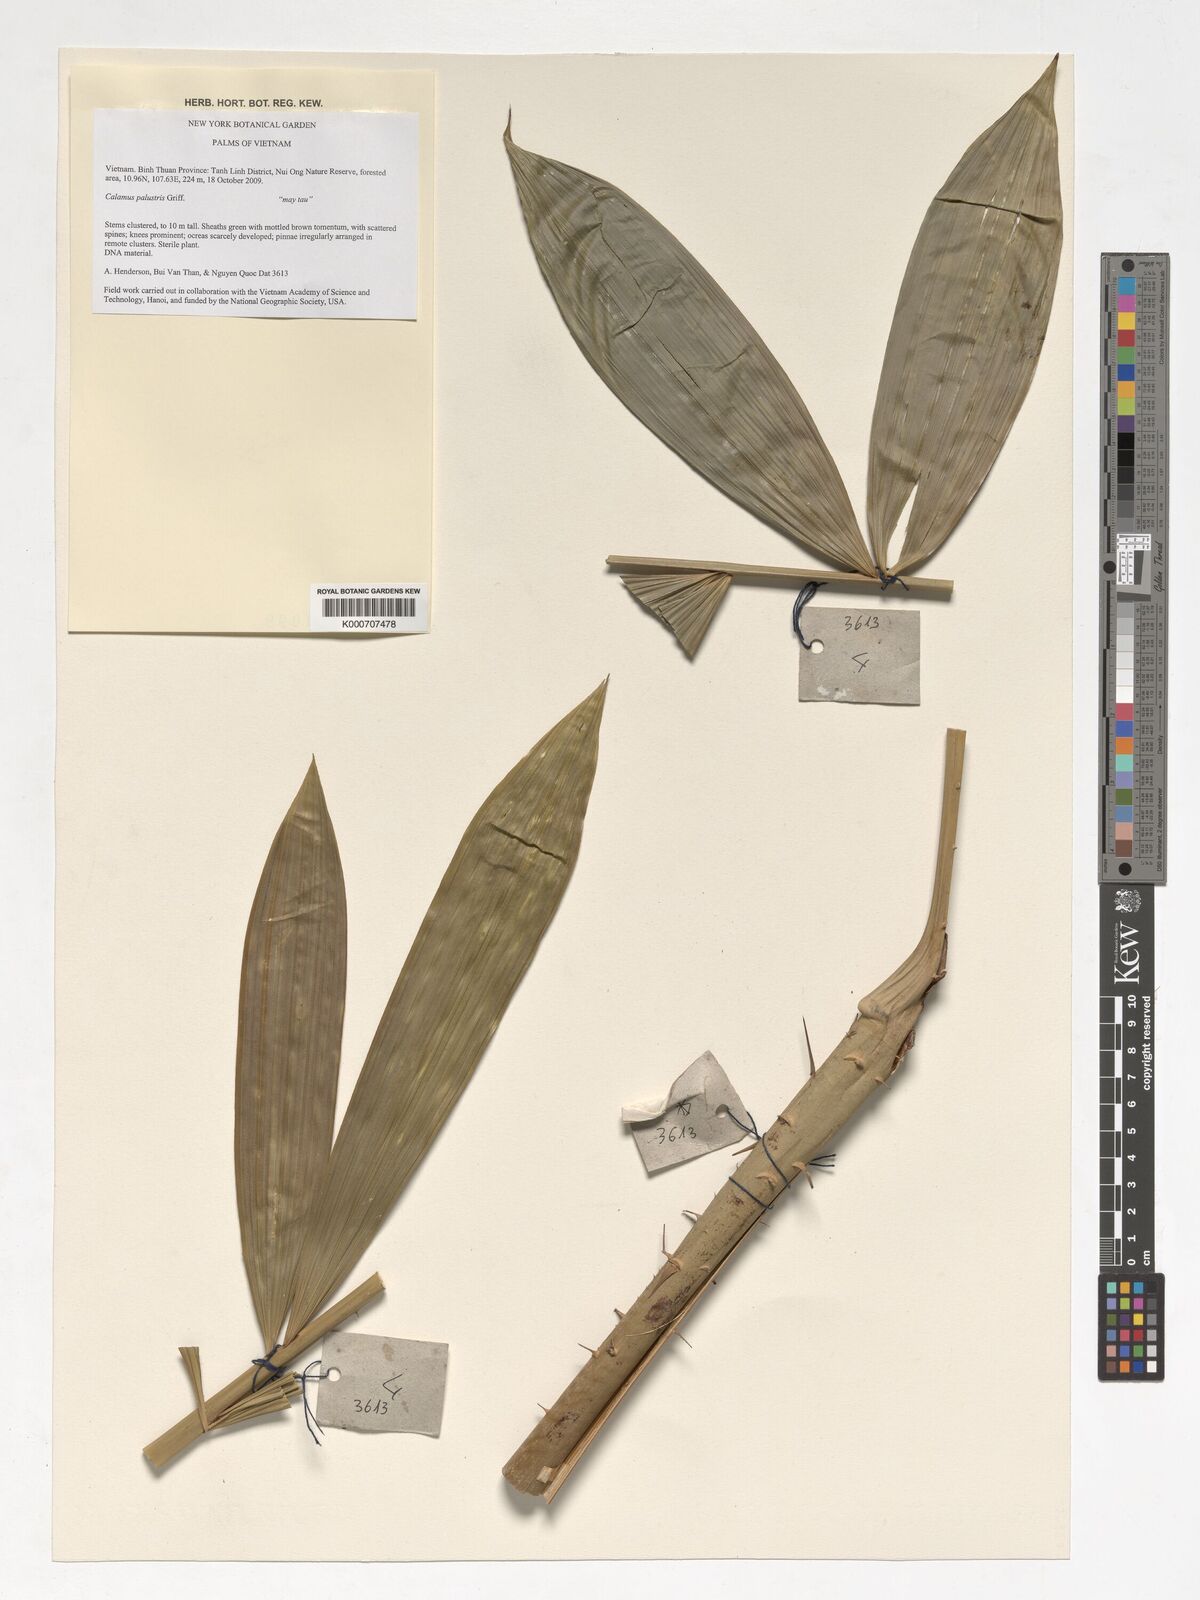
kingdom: Plantae
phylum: Tracheophyta
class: Liliopsida
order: Arecales
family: Arecaceae
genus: Calamus
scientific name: Calamus latifolius
